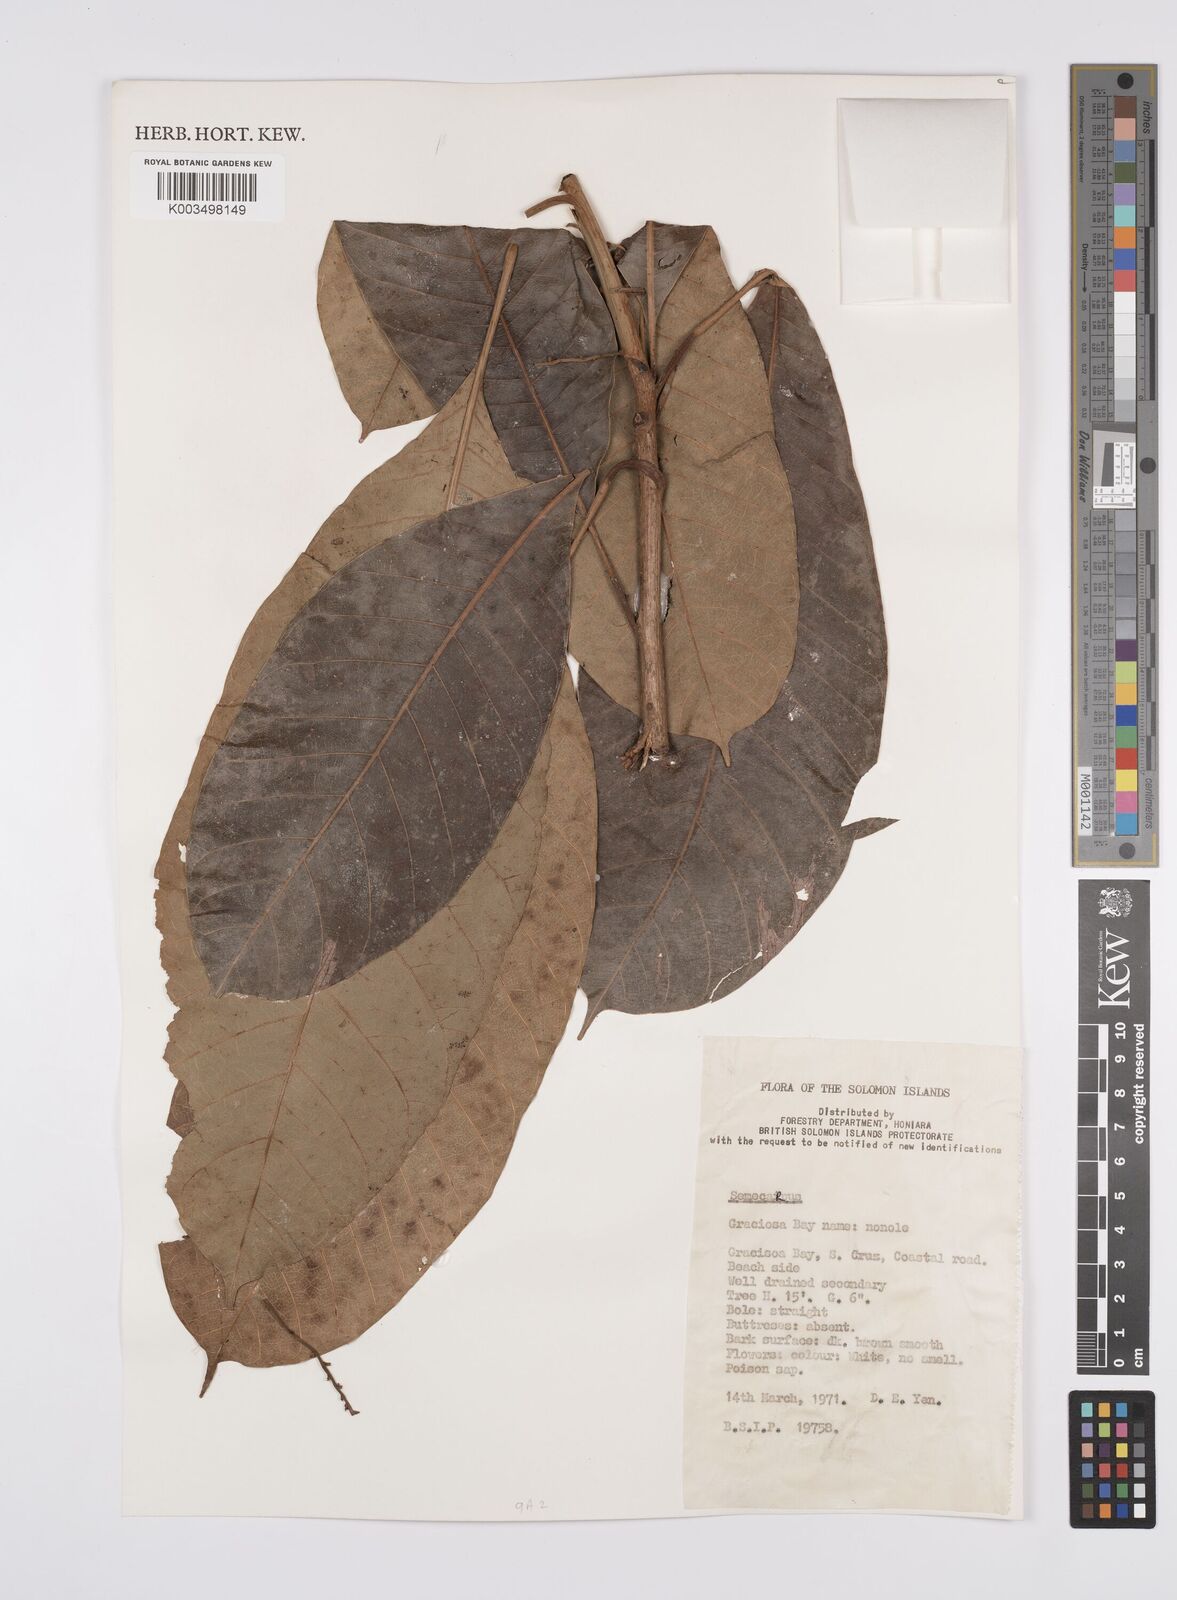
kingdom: Plantae
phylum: Tracheophyta
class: Magnoliopsida
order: Sapindales
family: Anacardiaceae
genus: Semecarpus
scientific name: Semecarpus
